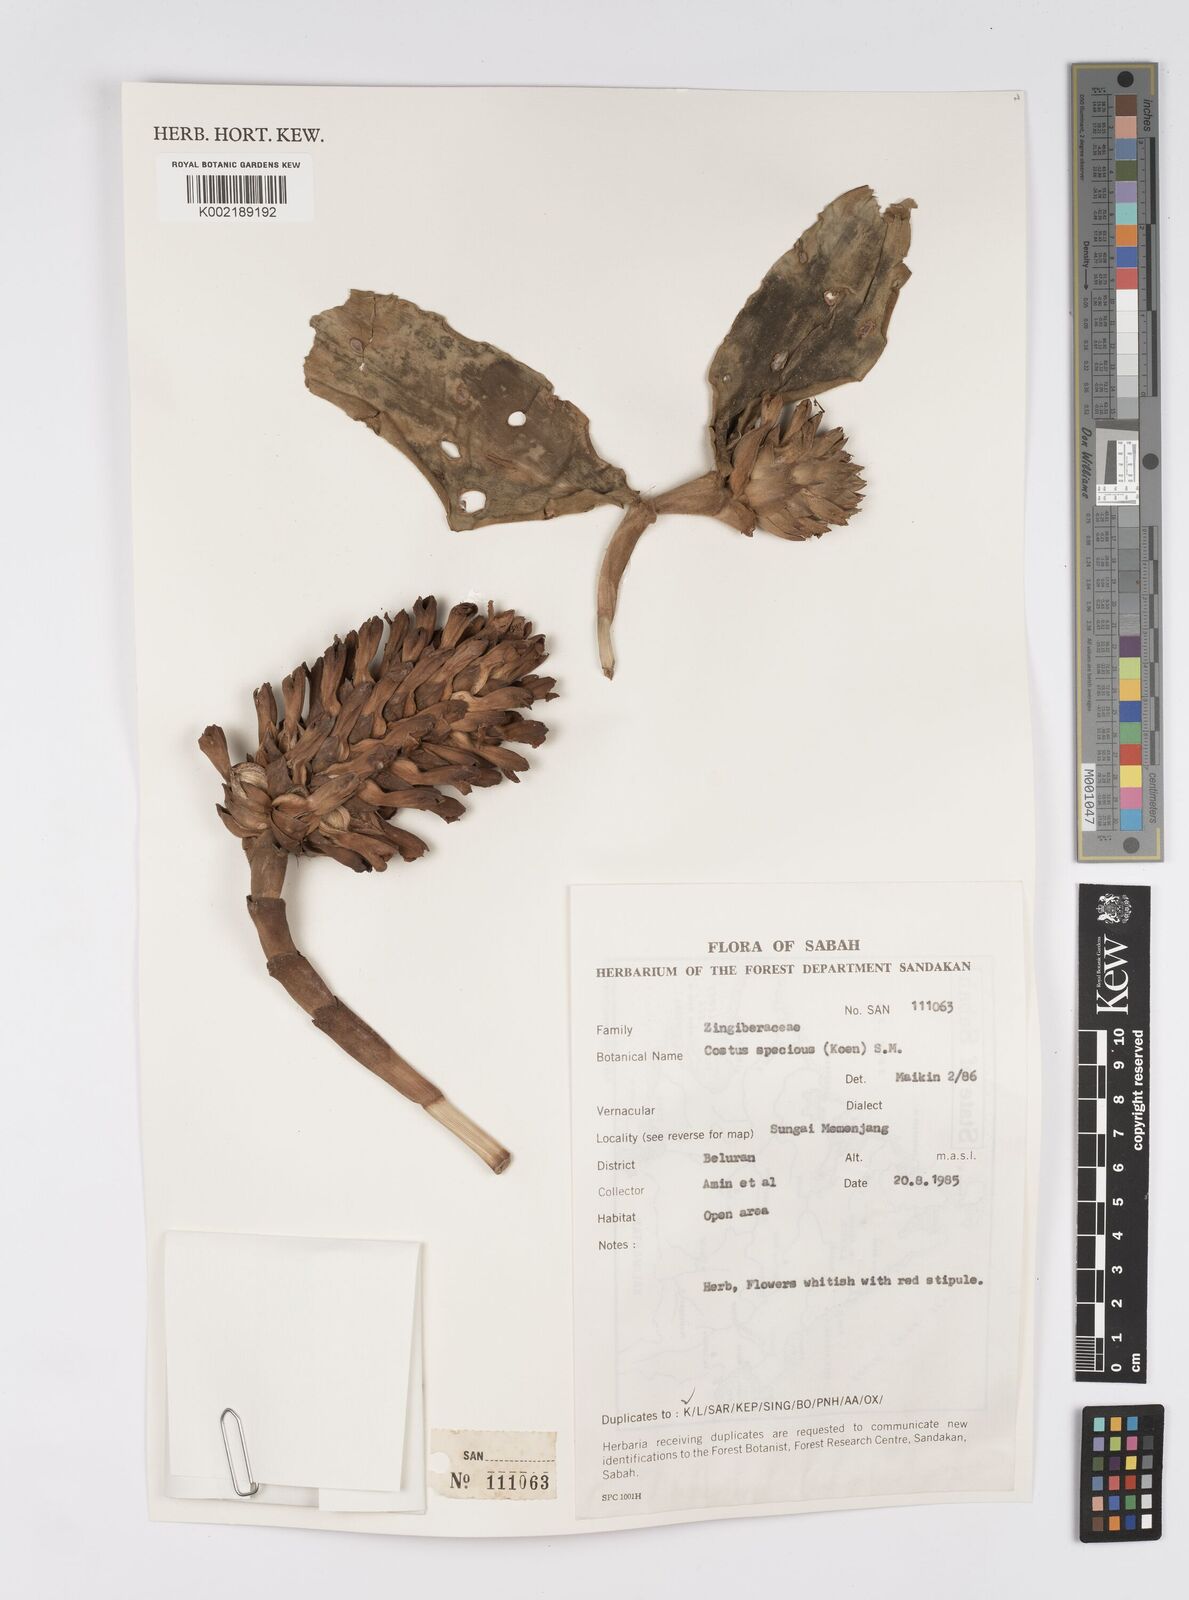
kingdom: Plantae
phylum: Tracheophyta
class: Liliopsida
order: Zingiberales
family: Costaceae
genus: Hellenia
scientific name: Hellenia speciosa
